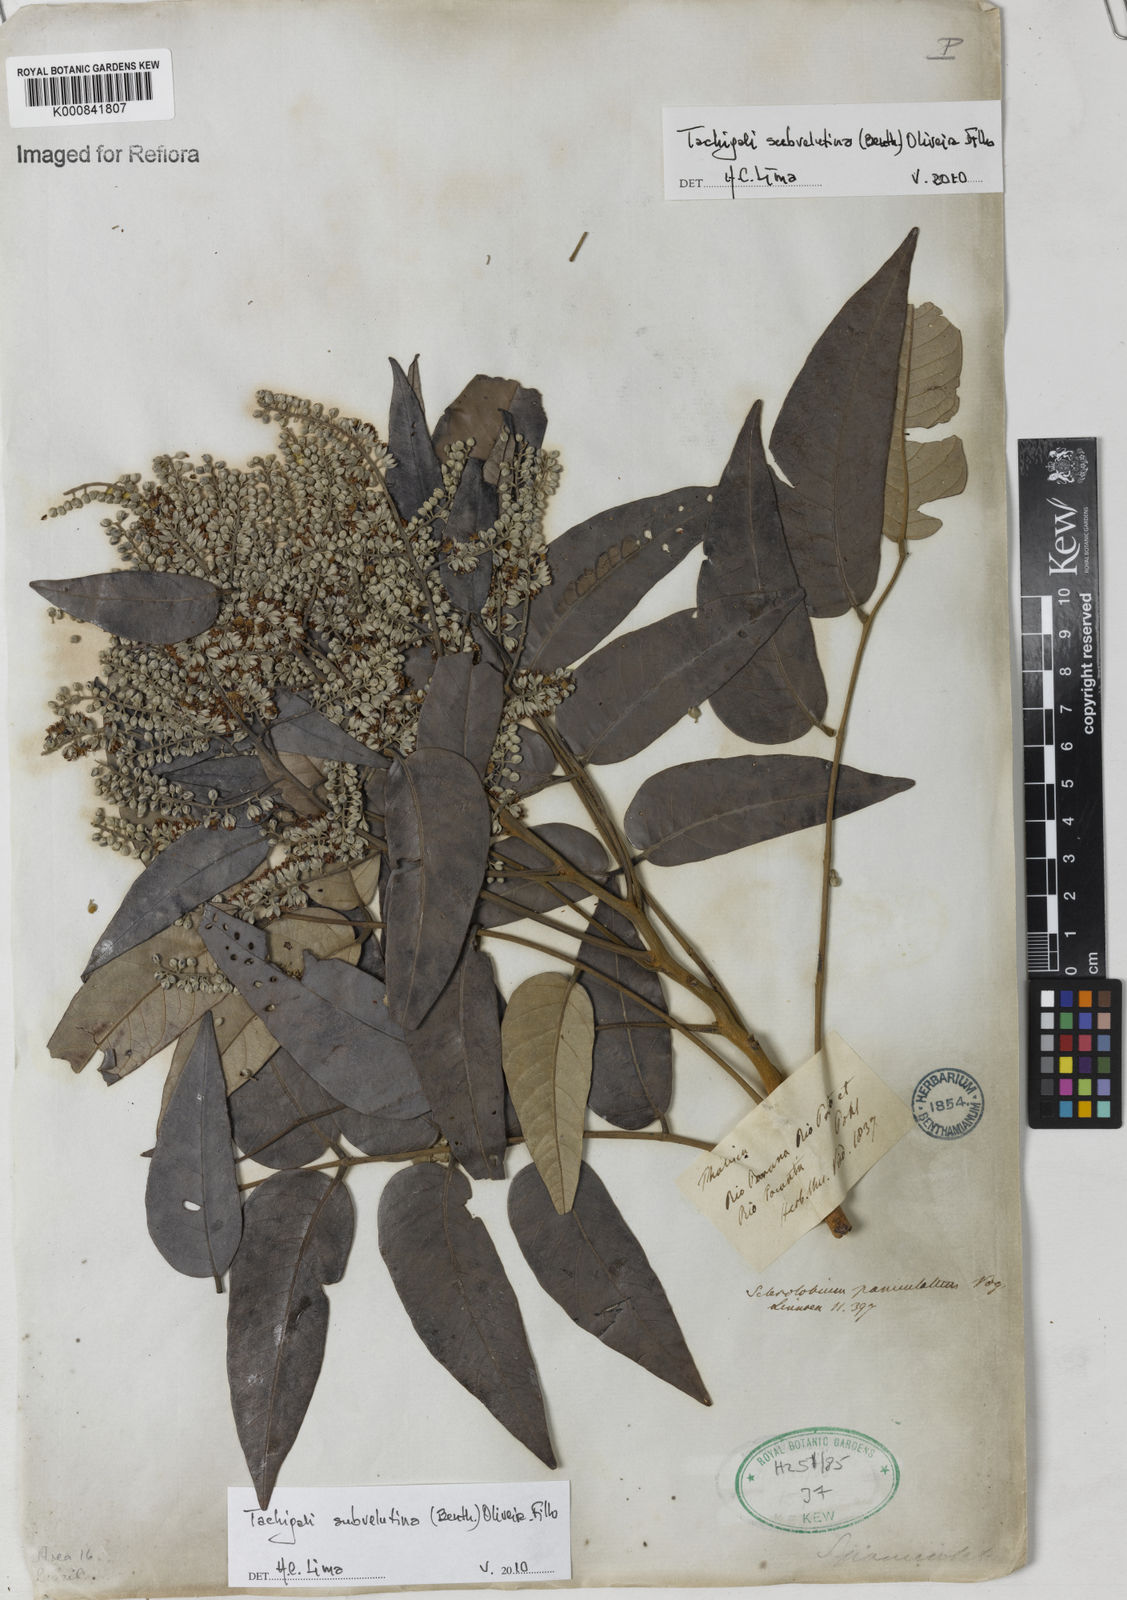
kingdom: Plantae
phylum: Tracheophyta
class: Magnoliopsida
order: Fabales
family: Fabaceae
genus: Tachigali
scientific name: Tachigali subvelutina
